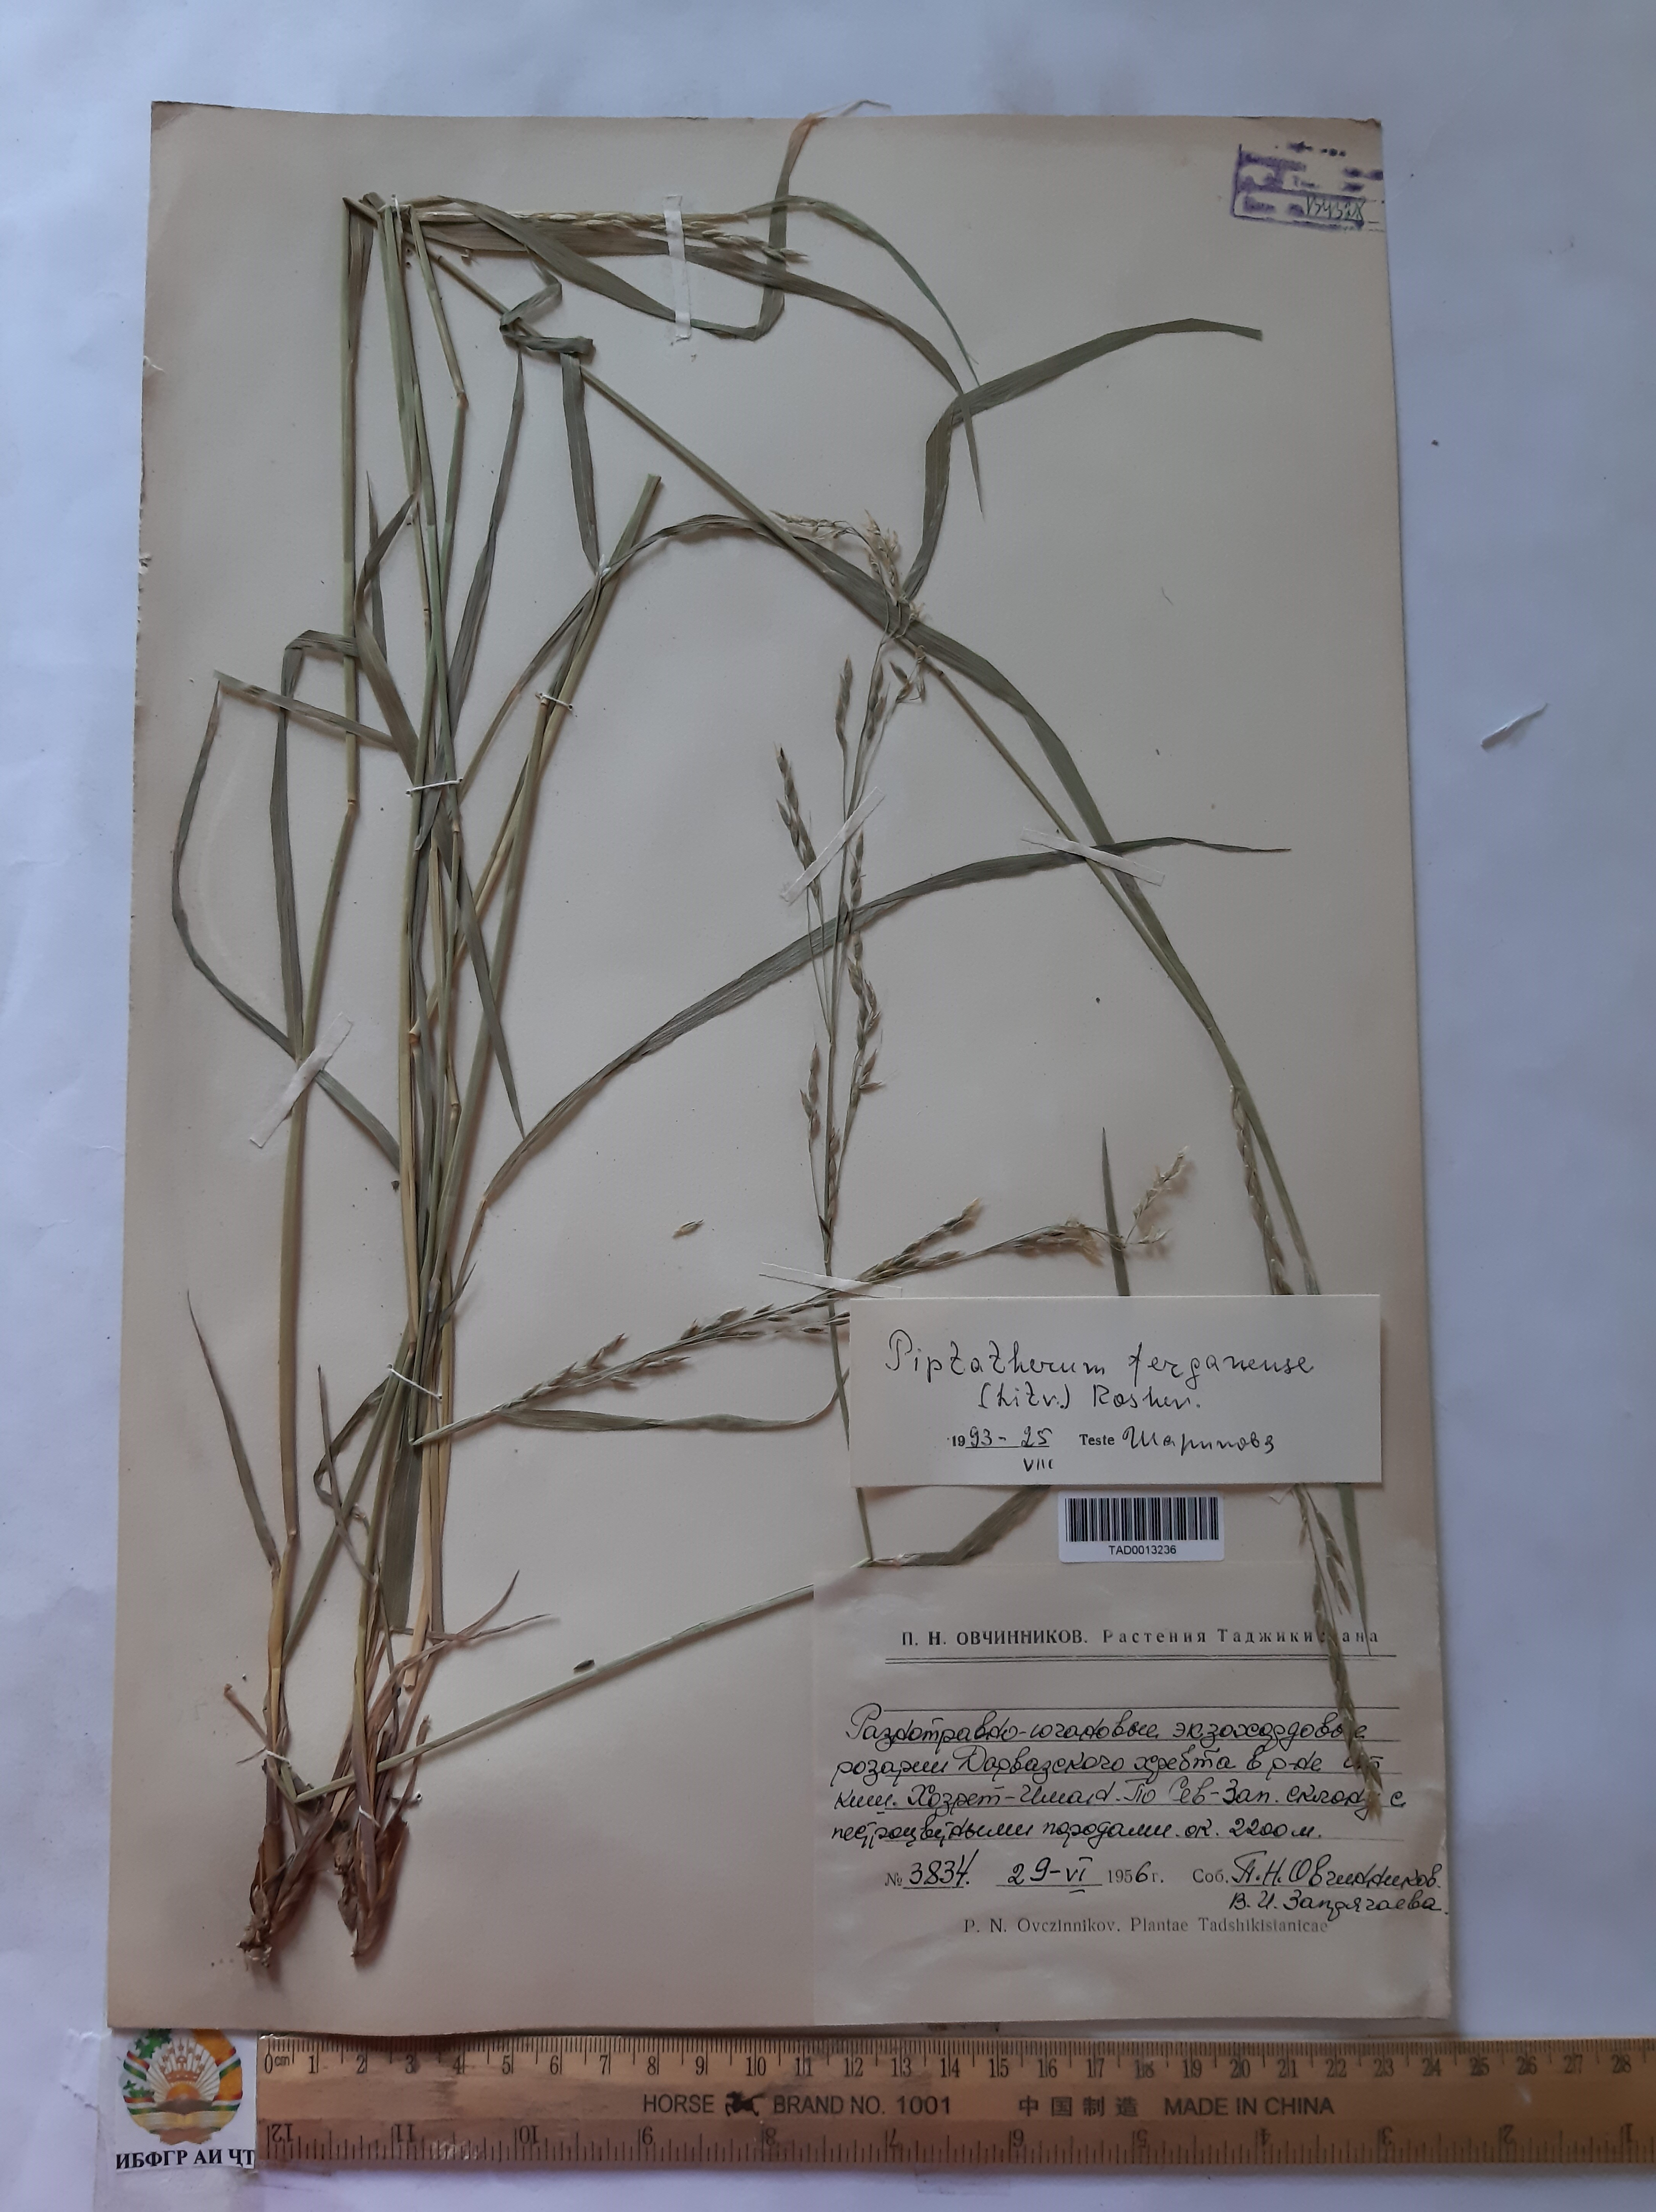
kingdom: Plantae
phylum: Tracheophyta
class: Liliopsida
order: Poales
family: Poaceae
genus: Piptatherum
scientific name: Piptatherum ferganense
